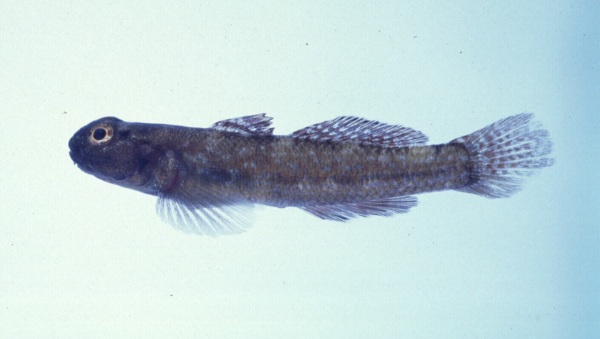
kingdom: Animalia
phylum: Chordata
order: Perciformes
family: Gobiidae
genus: Bathygobius
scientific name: Bathygobius cocosensis
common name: Cocos frillgoby
